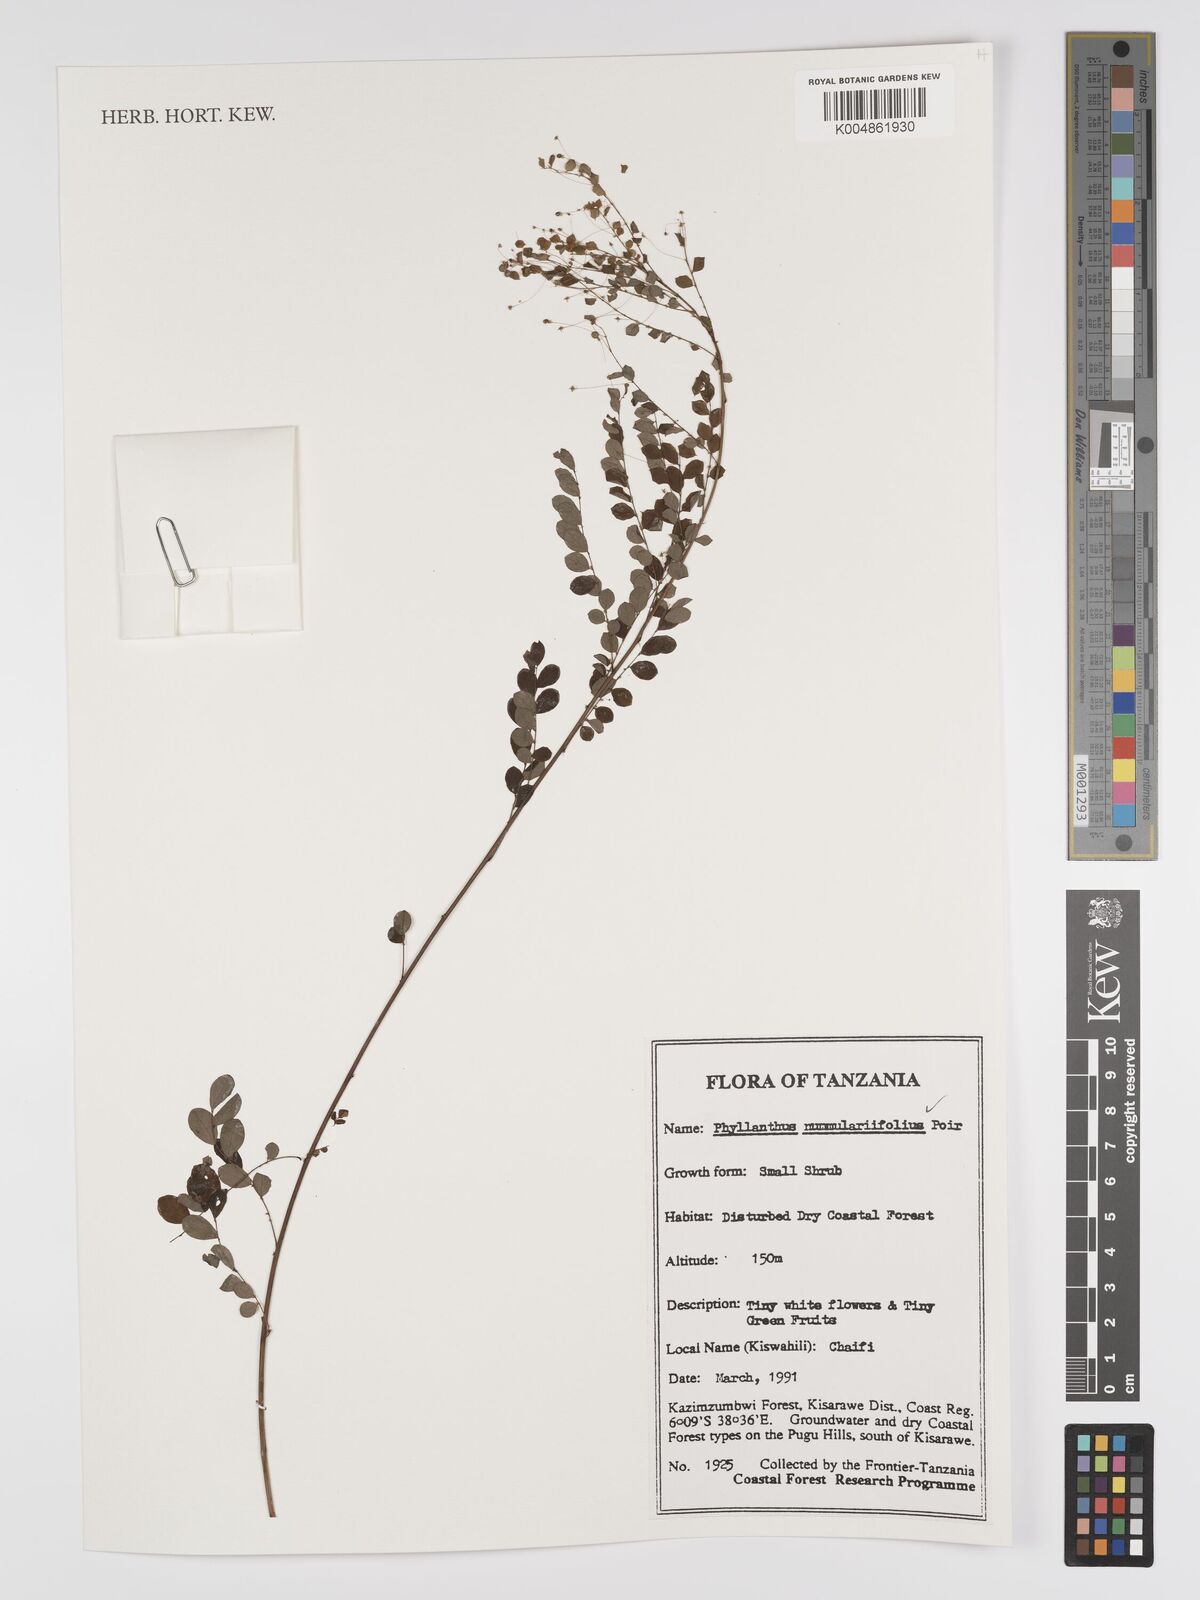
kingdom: Plantae
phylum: Tracheophyta
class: Magnoliopsida
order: Malpighiales
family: Phyllanthaceae
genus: Phyllanthus
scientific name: Phyllanthus nummulariifolius
